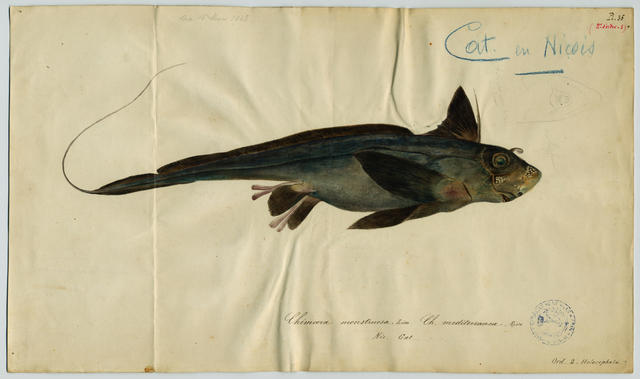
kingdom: Animalia
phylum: Chordata
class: Holocephali
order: Chimaeriformes
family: Chimaeridae
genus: Chimaera
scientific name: Chimaera monstrosa
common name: Rabbitfish
